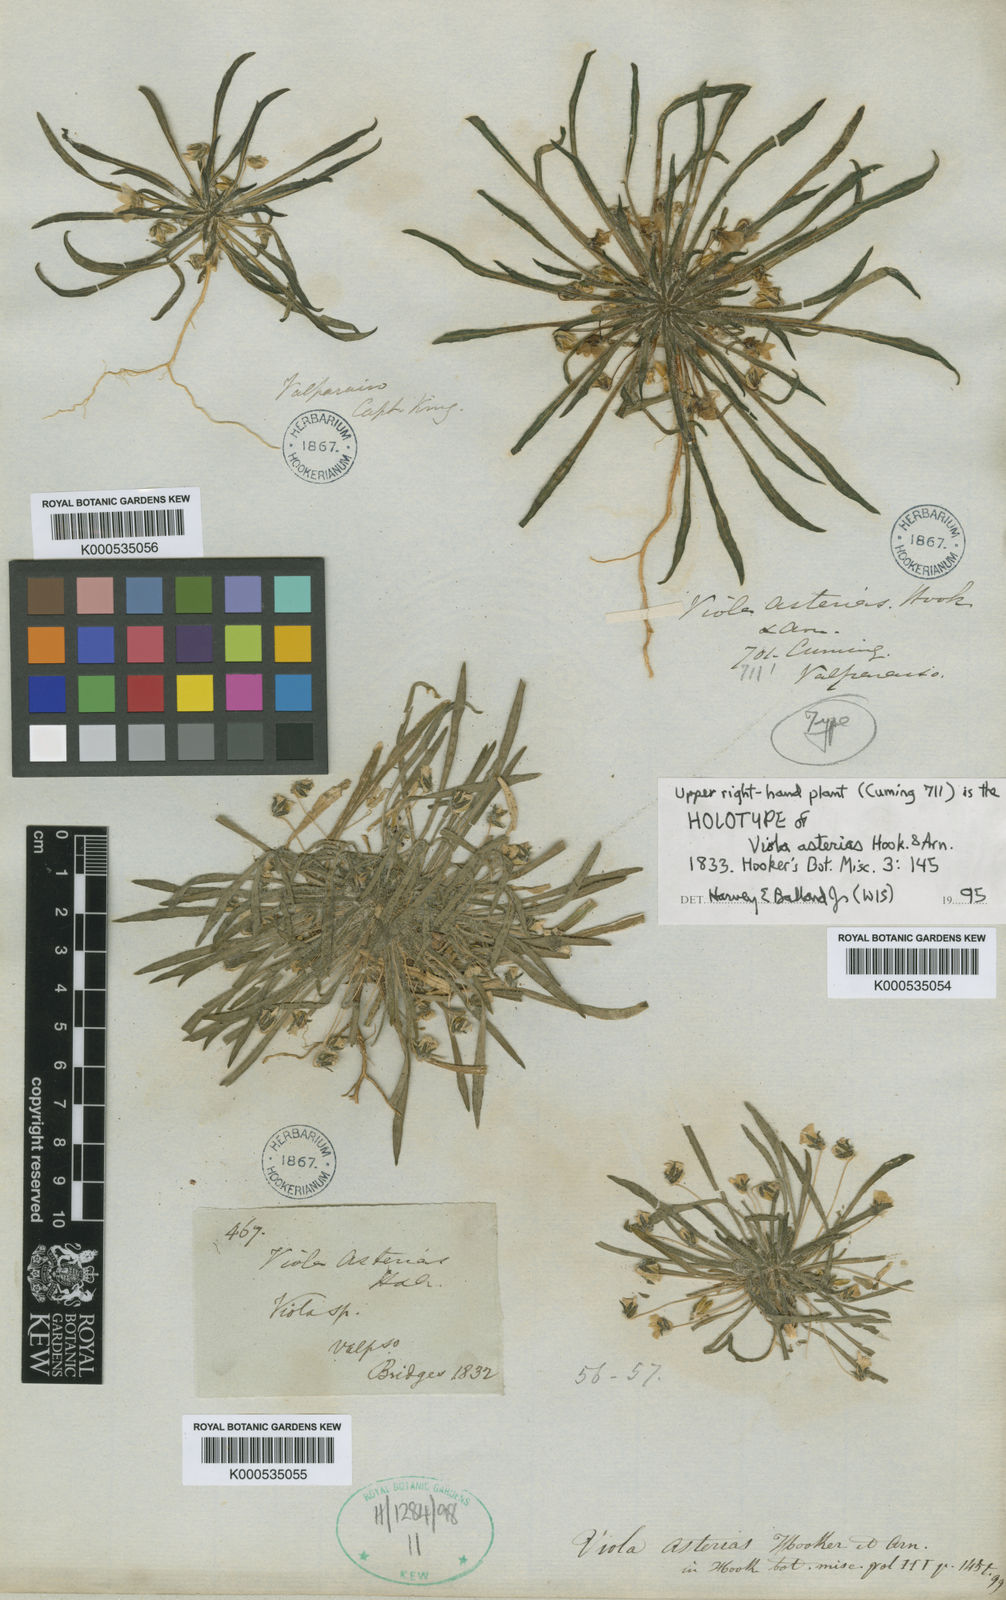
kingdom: Plantae
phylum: Tracheophyta
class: Magnoliopsida
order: Malpighiales
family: Violaceae
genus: Viola
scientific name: Viola pusilla
